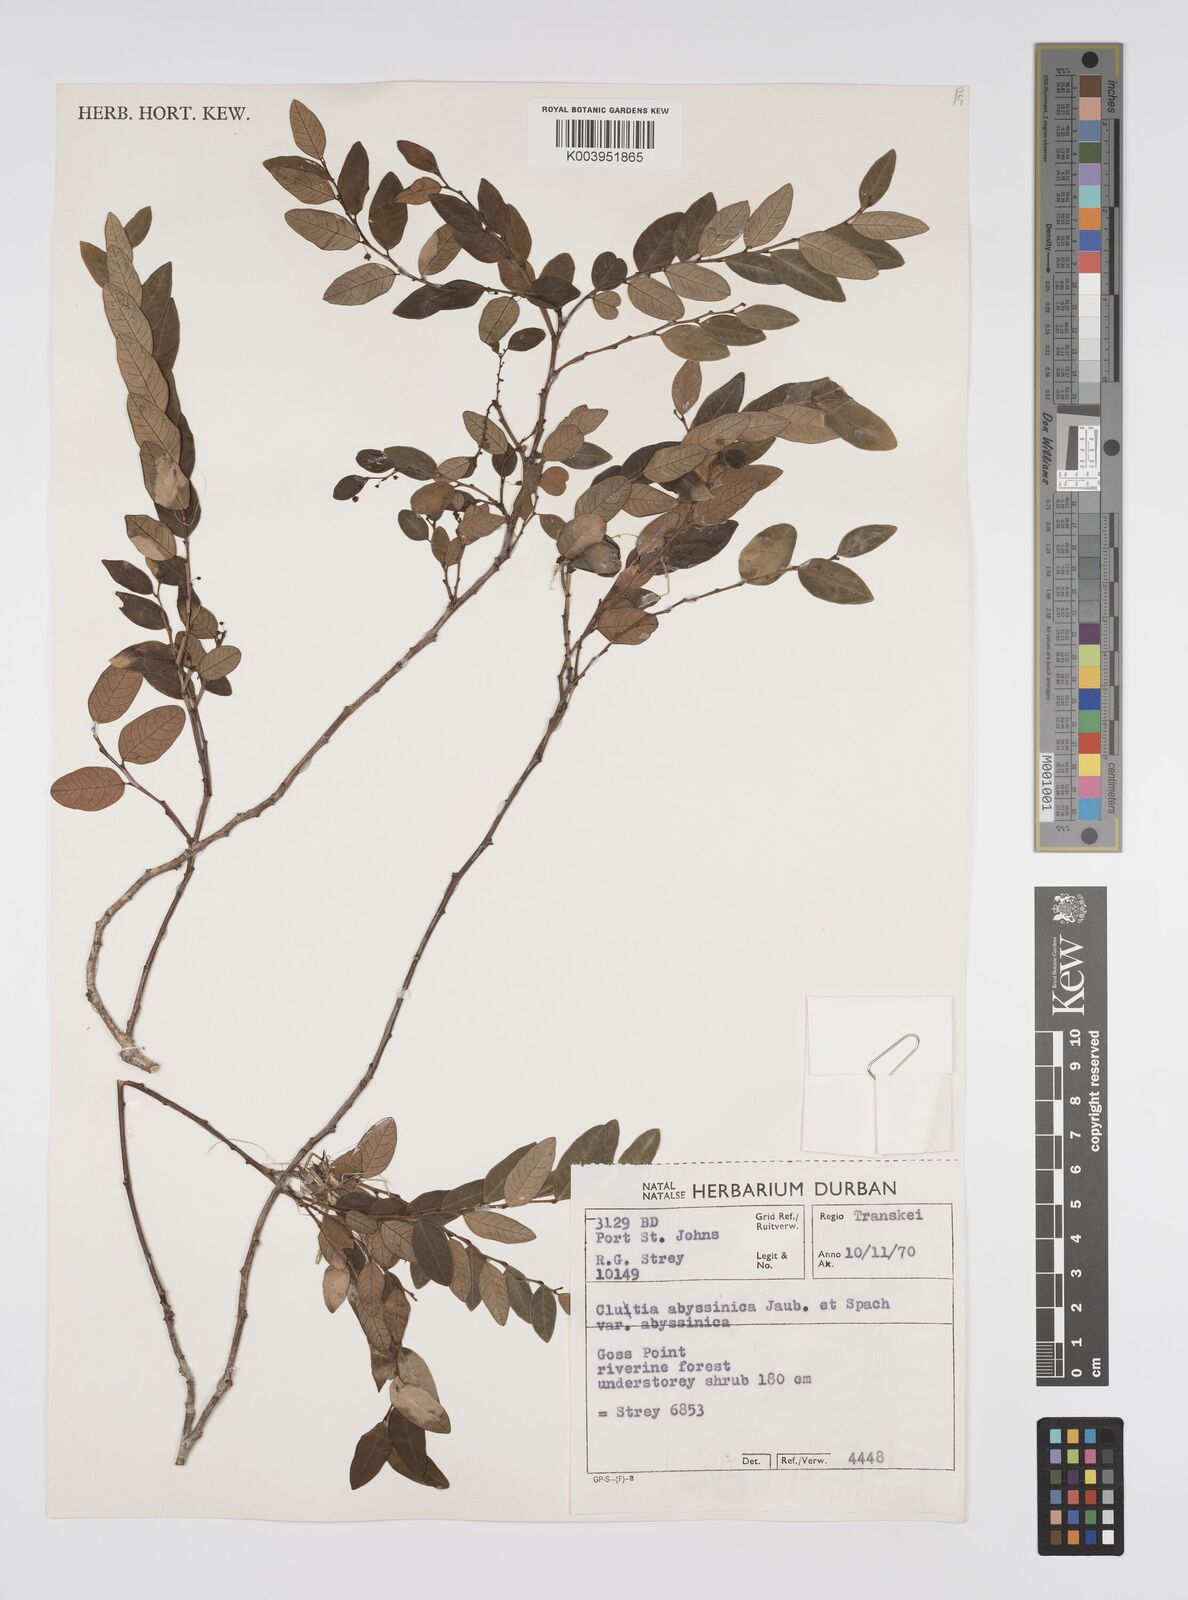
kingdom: Plantae
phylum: Tracheophyta
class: Magnoliopsida
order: Malpighiales
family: Peraceae
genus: Clutia
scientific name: Clutia abyssinica
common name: Large lightning bush
